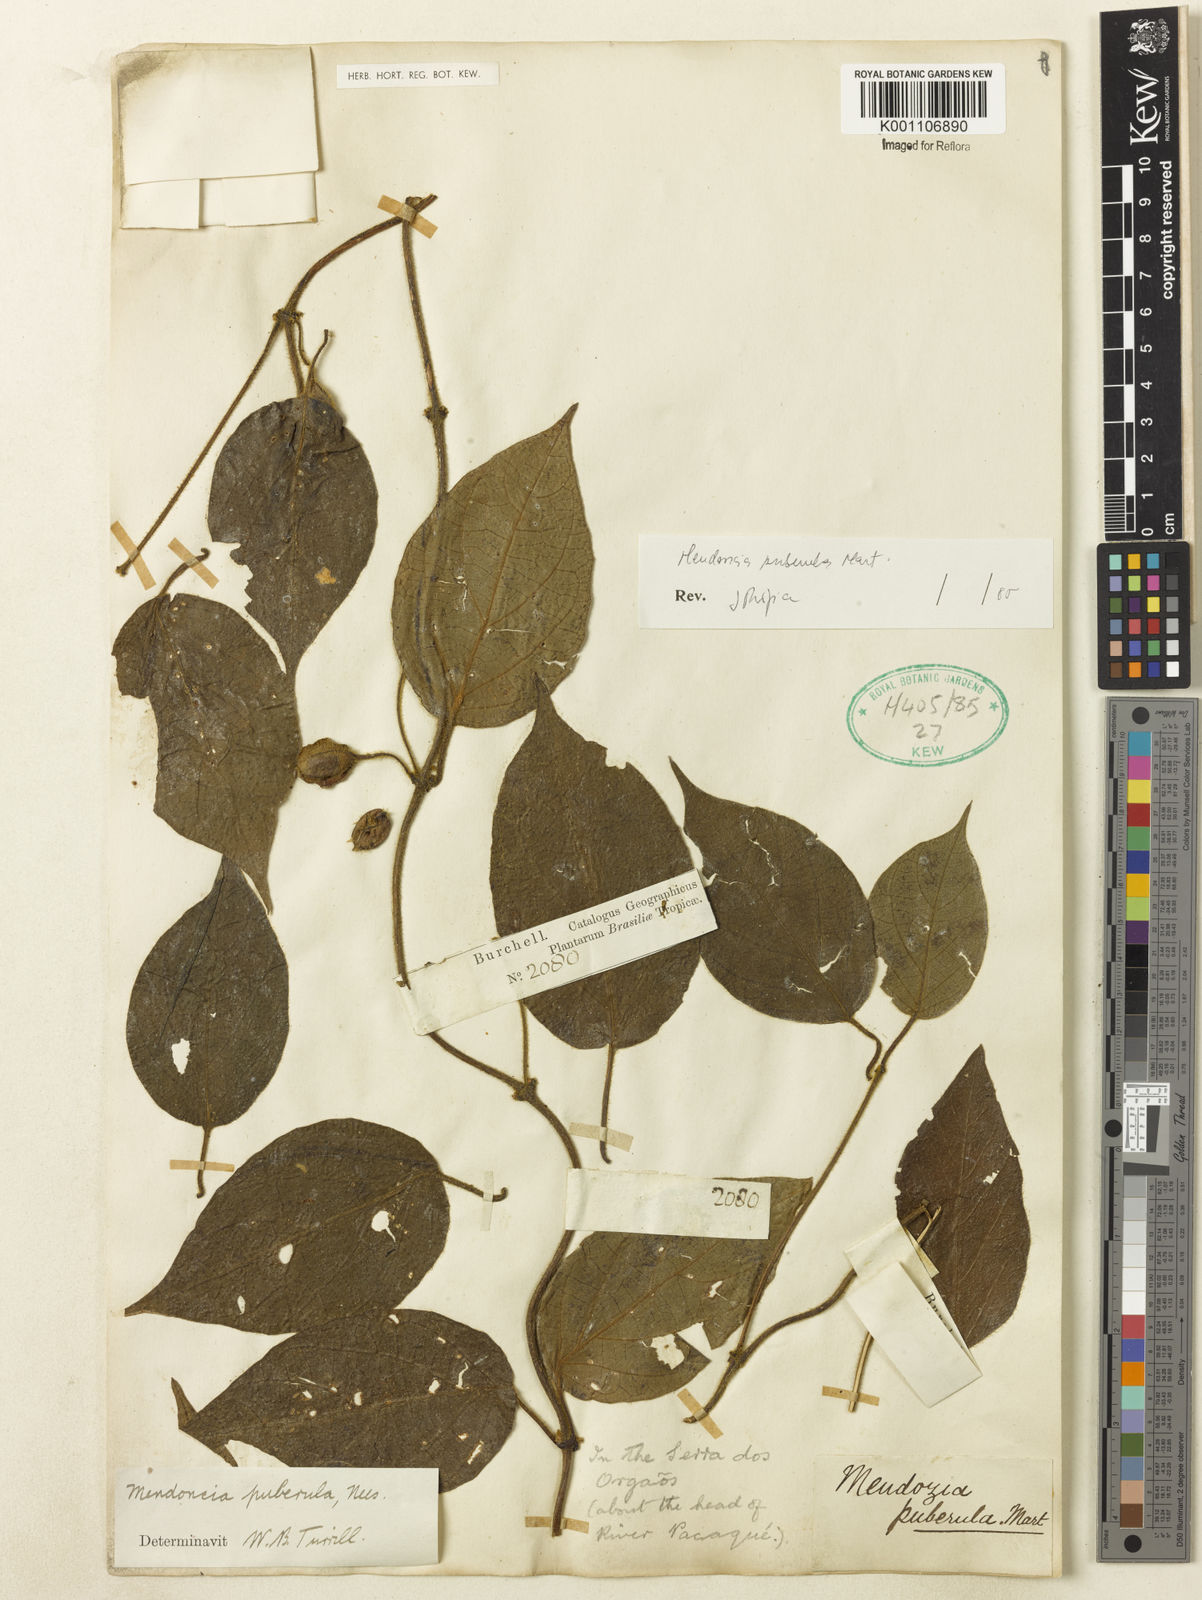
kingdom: Plantae
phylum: Tracheophyta
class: Magnoliopsida
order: Lamiales
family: Acanthaceae
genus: Mendoncia
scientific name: Mendoncia puberula
